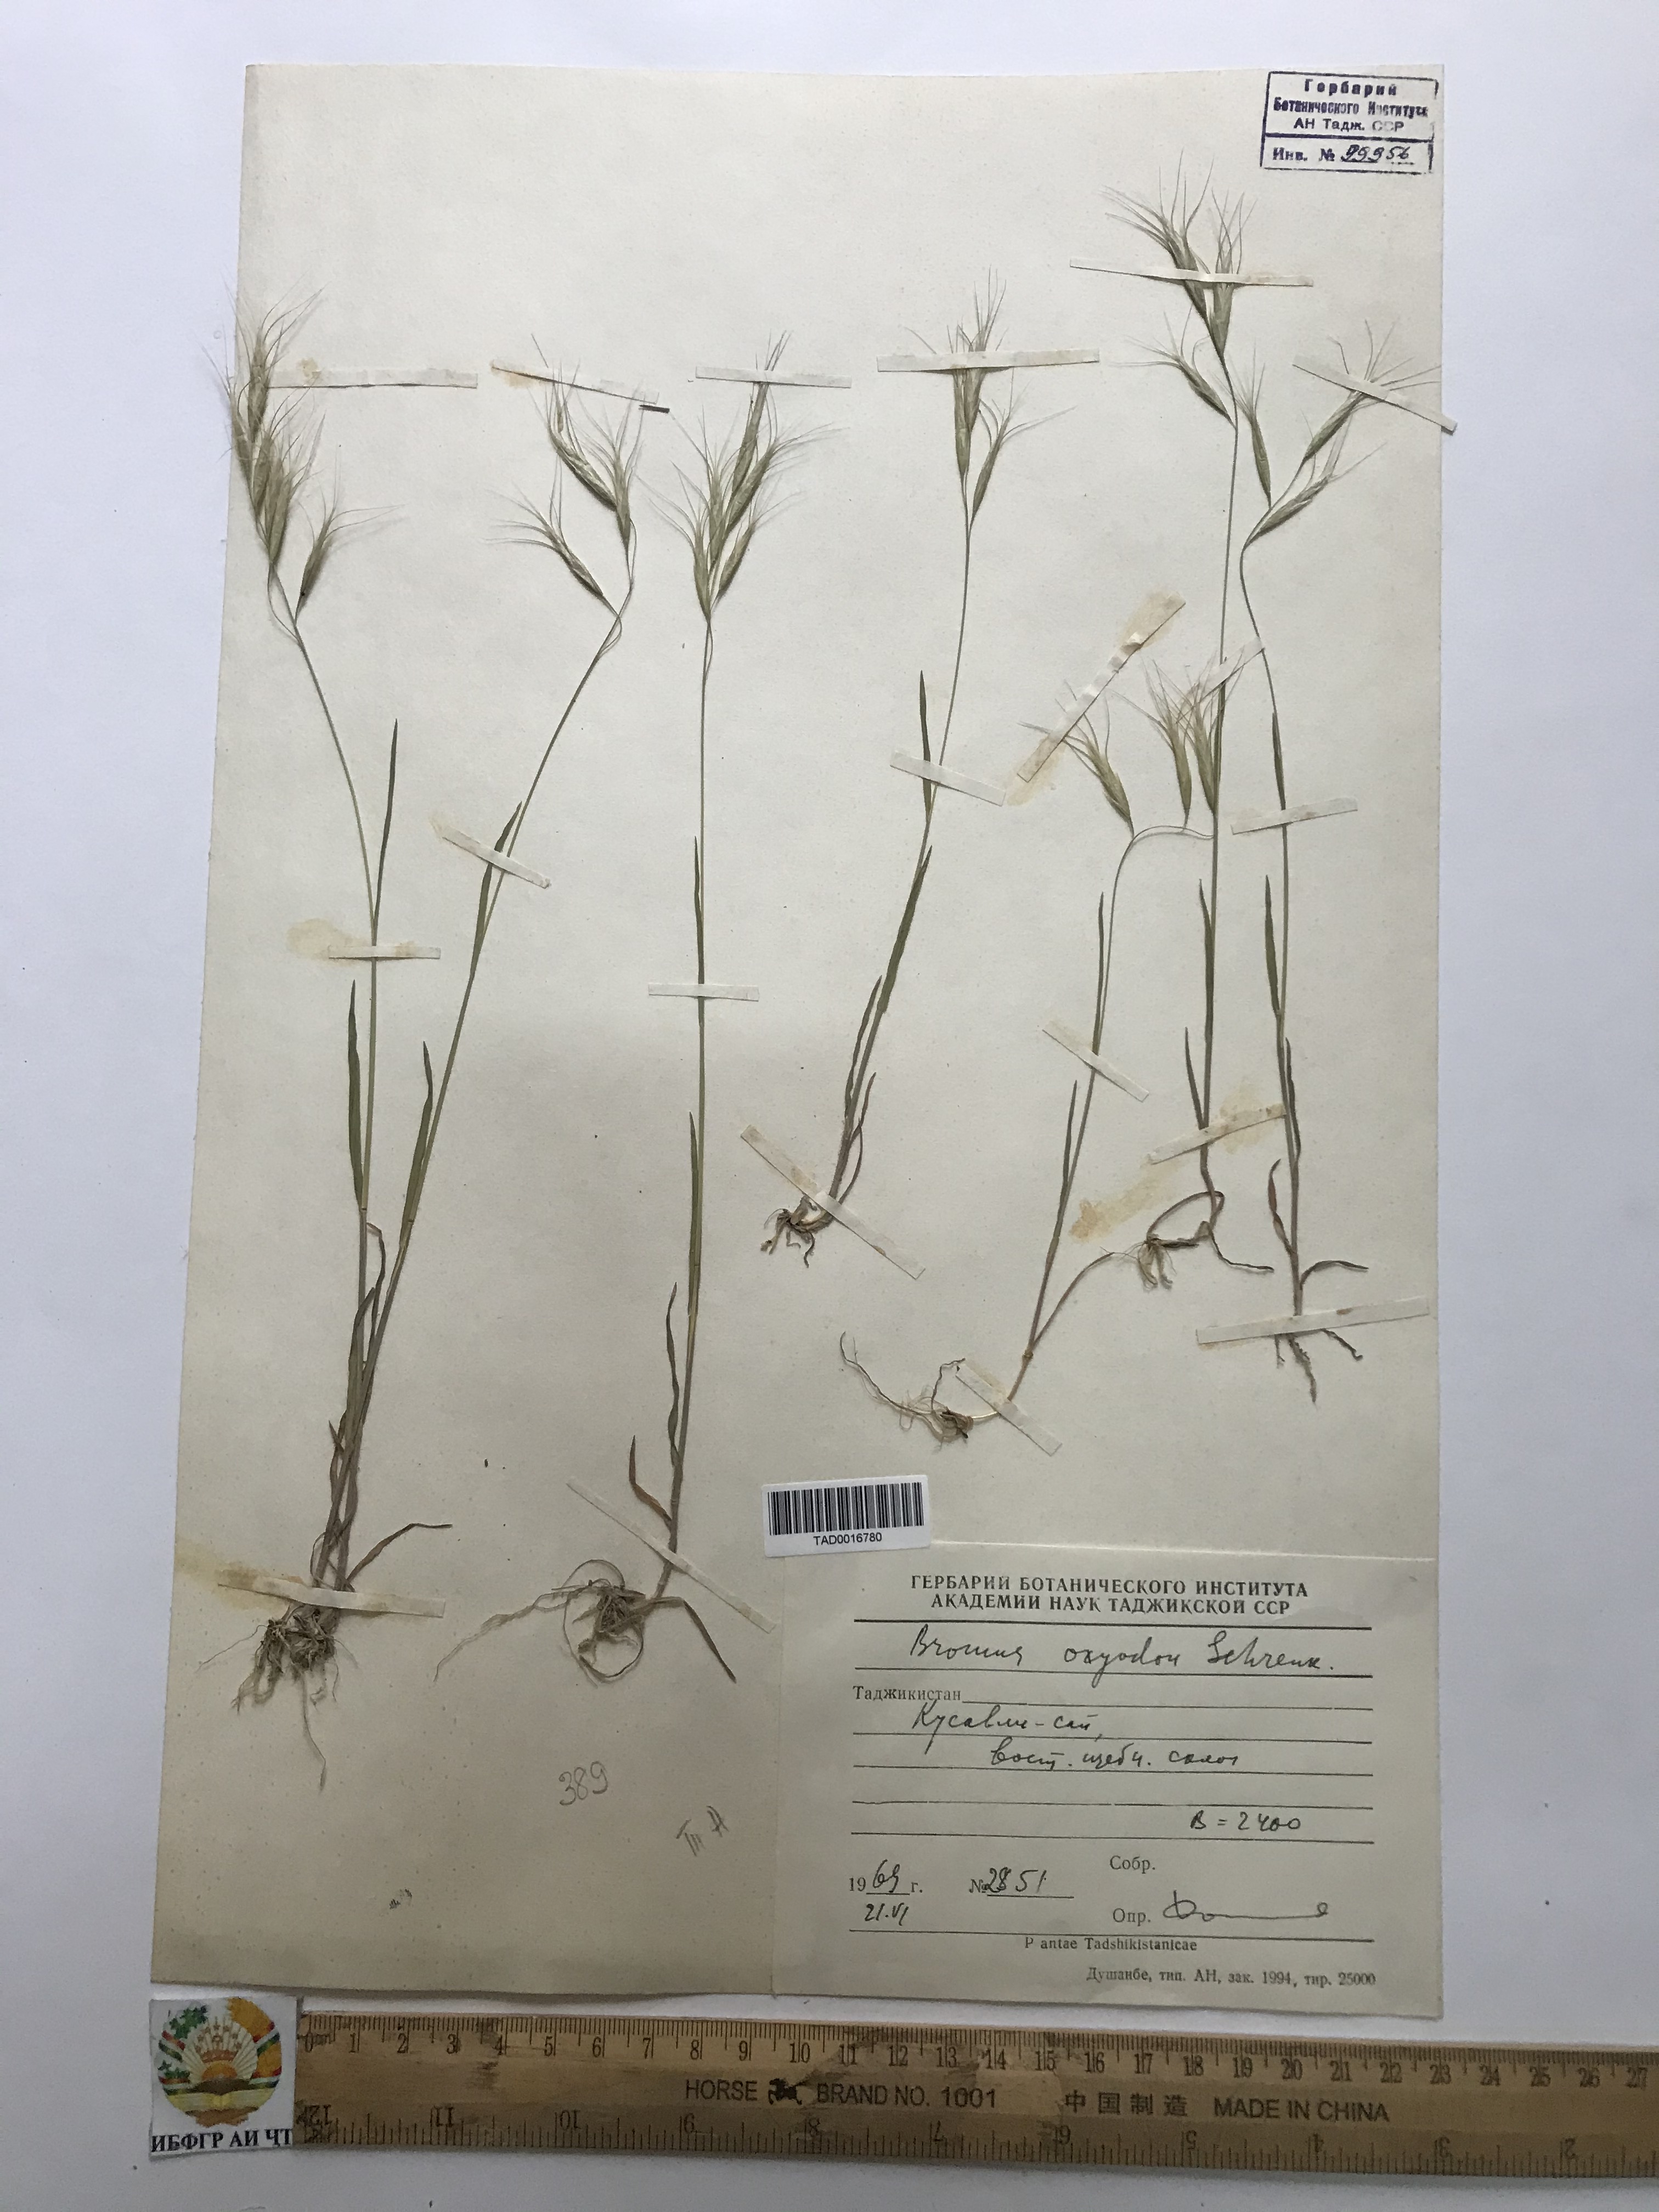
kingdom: Plantae
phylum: Tracheophyta
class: Liliopsida
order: Poales
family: Poaceae
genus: Bromus
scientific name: Bromus oxyodon
